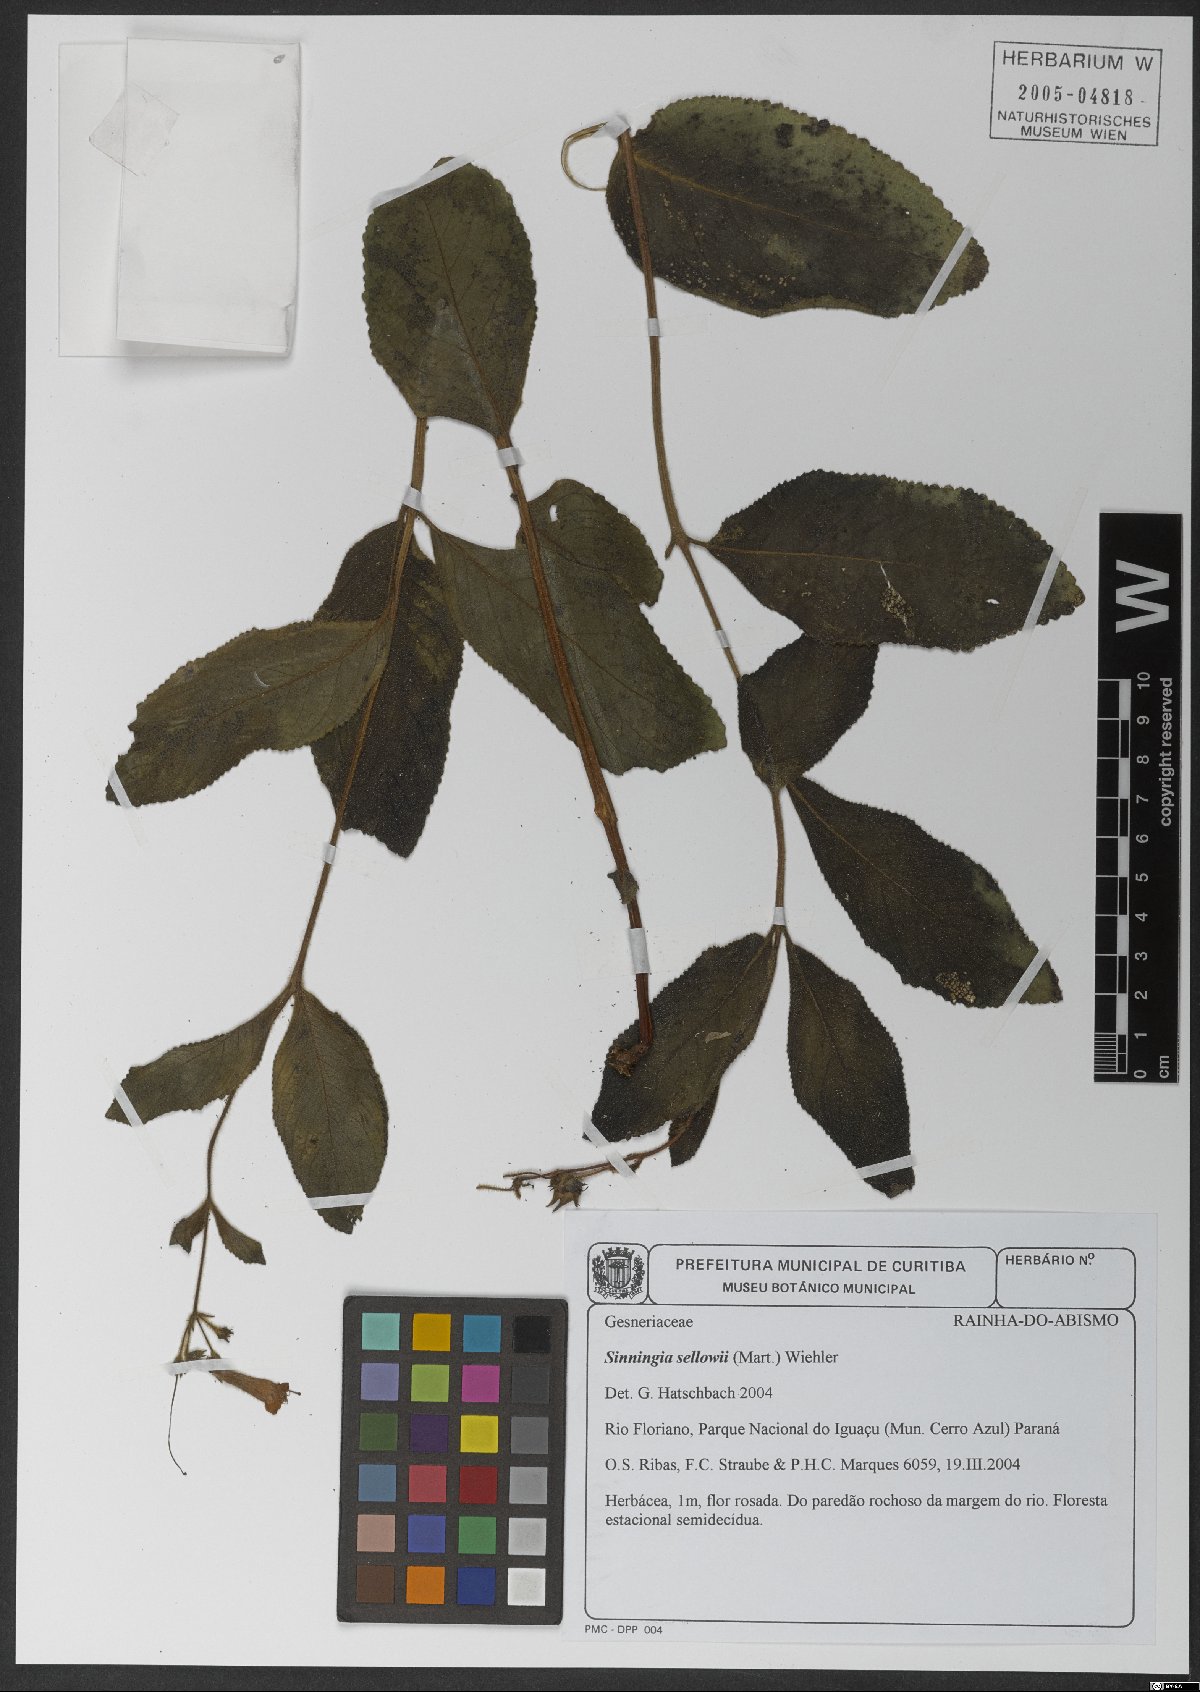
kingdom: Plantae
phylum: Tracheophyta
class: Magnoliopsida
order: Lamiales
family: Gesneriaceae
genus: Sinningia
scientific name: Sinningia sellovii
